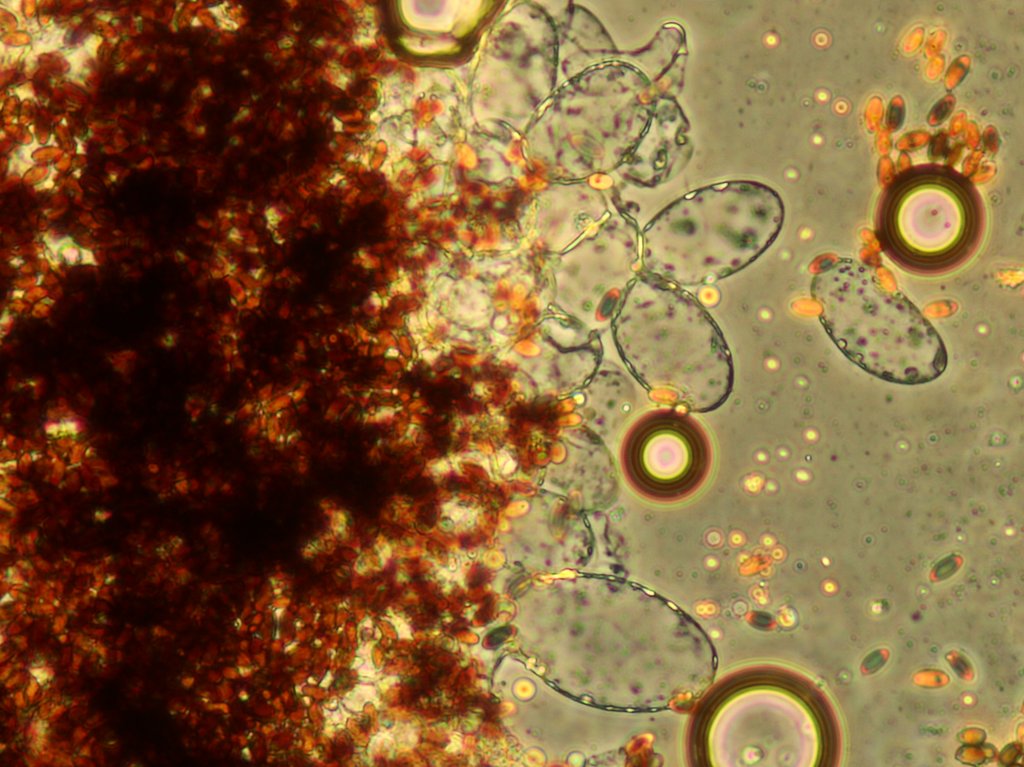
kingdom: Fungi
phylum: Basidiomycota
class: Agaricomycetes
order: Agaricales
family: Psathyrellaceae
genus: Tulosesus
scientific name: Tulosesus congregatus
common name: klynge-blækhat
